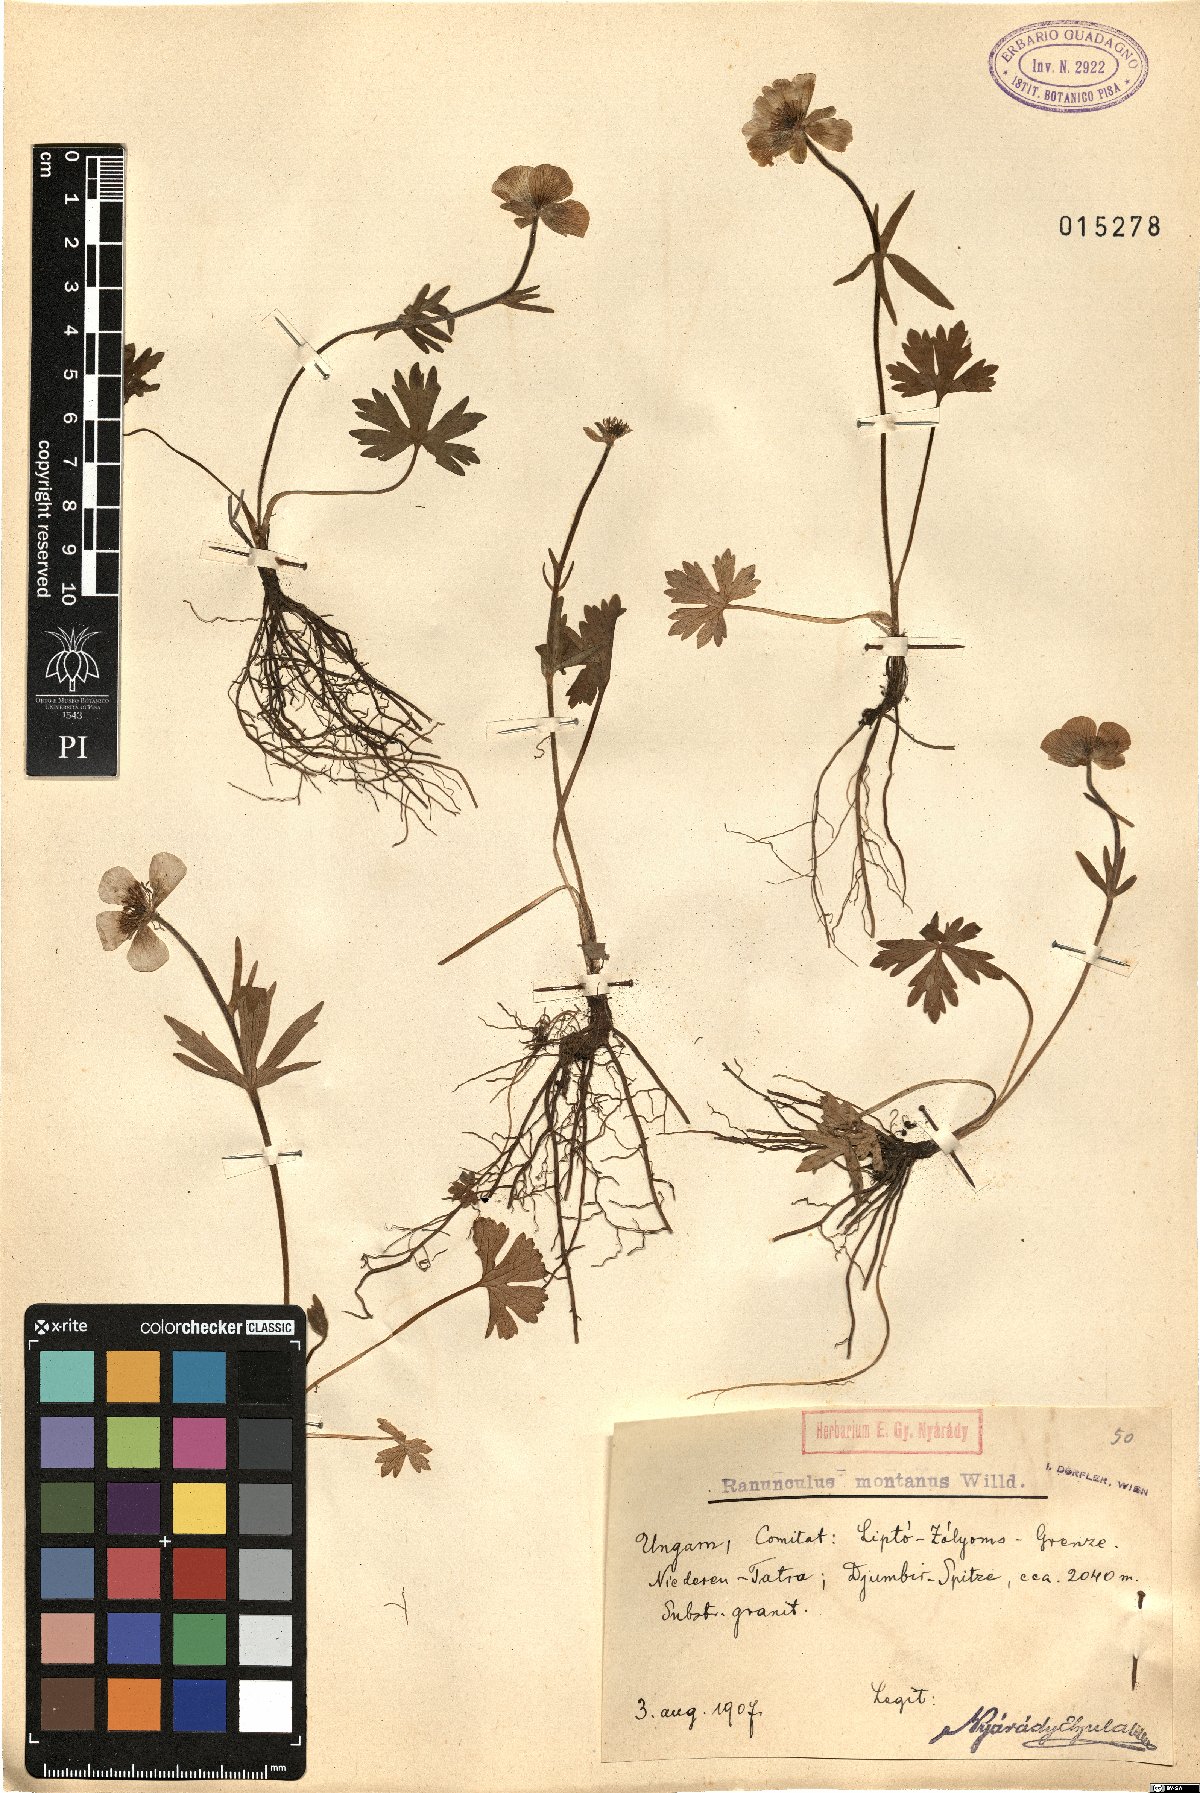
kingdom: Plantae
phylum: Tracheophyta
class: Magnoliopsida
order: Ranunculales
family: Ranunculaceae
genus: Ranunculus
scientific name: Ranunculus montanus
